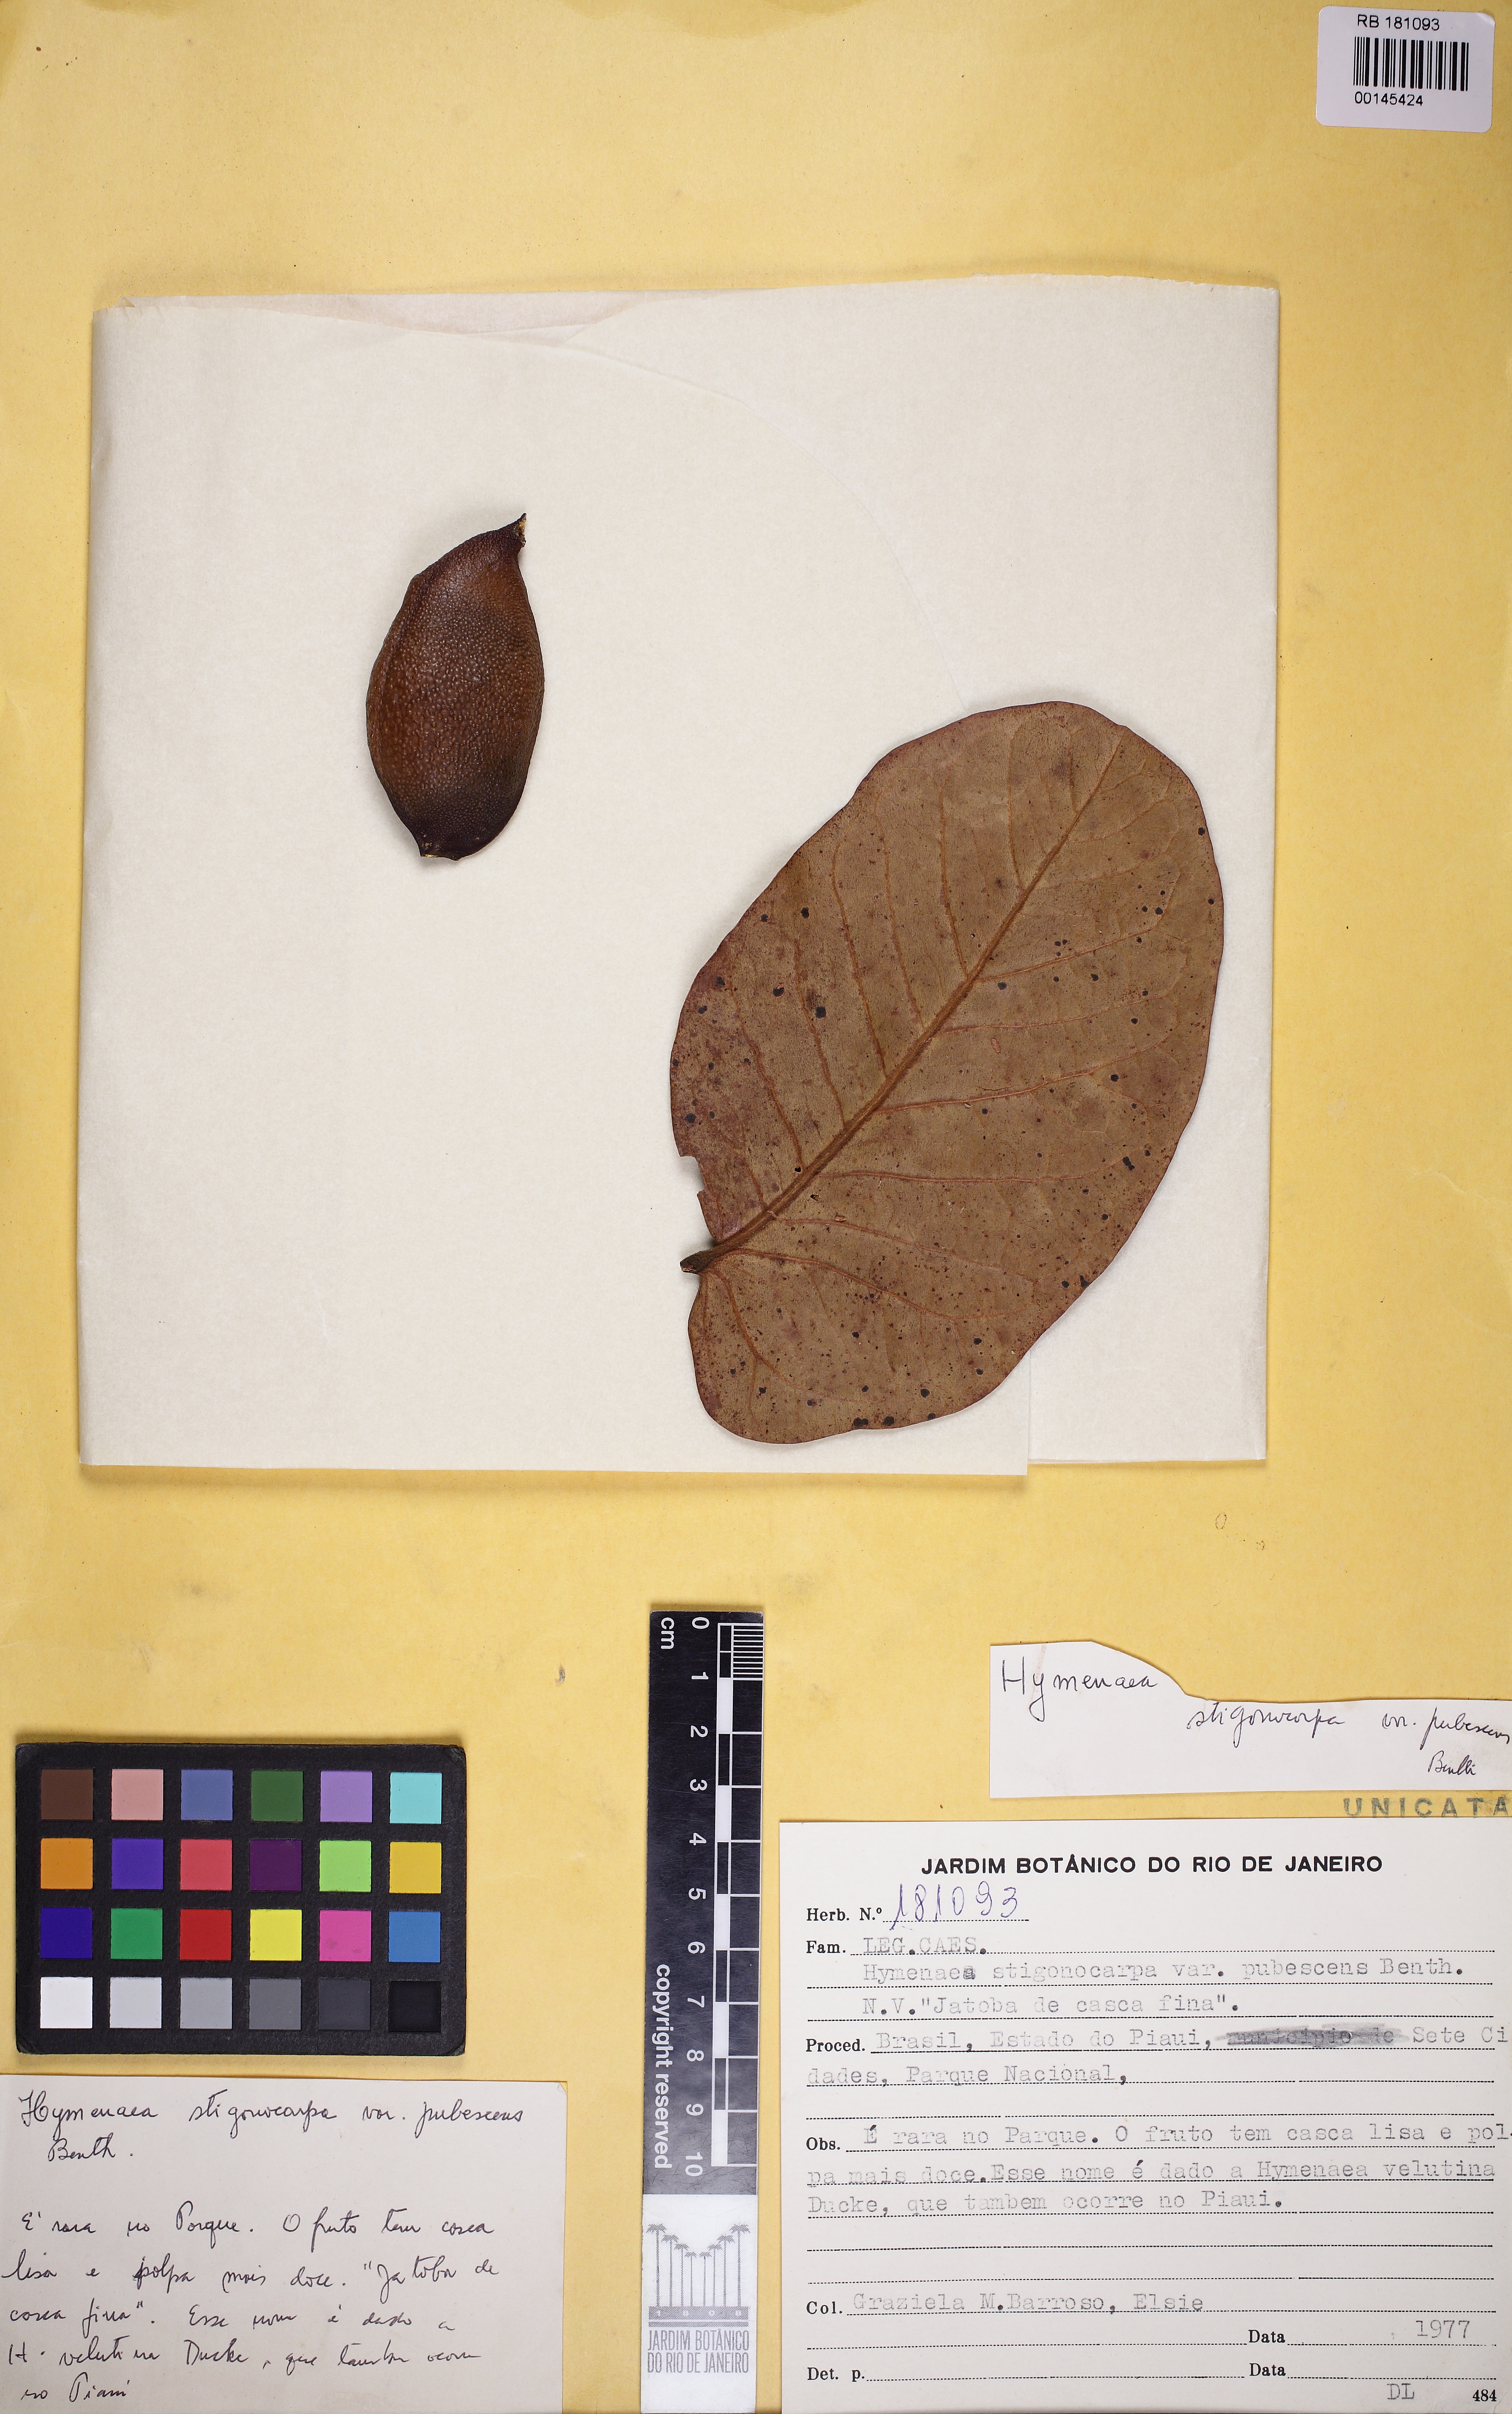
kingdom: Plantae
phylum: Tracheophyta
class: Magnoliopsida
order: Fabales
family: Fabaceae
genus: Hymenaea
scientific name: Hymenaea maranhensis
